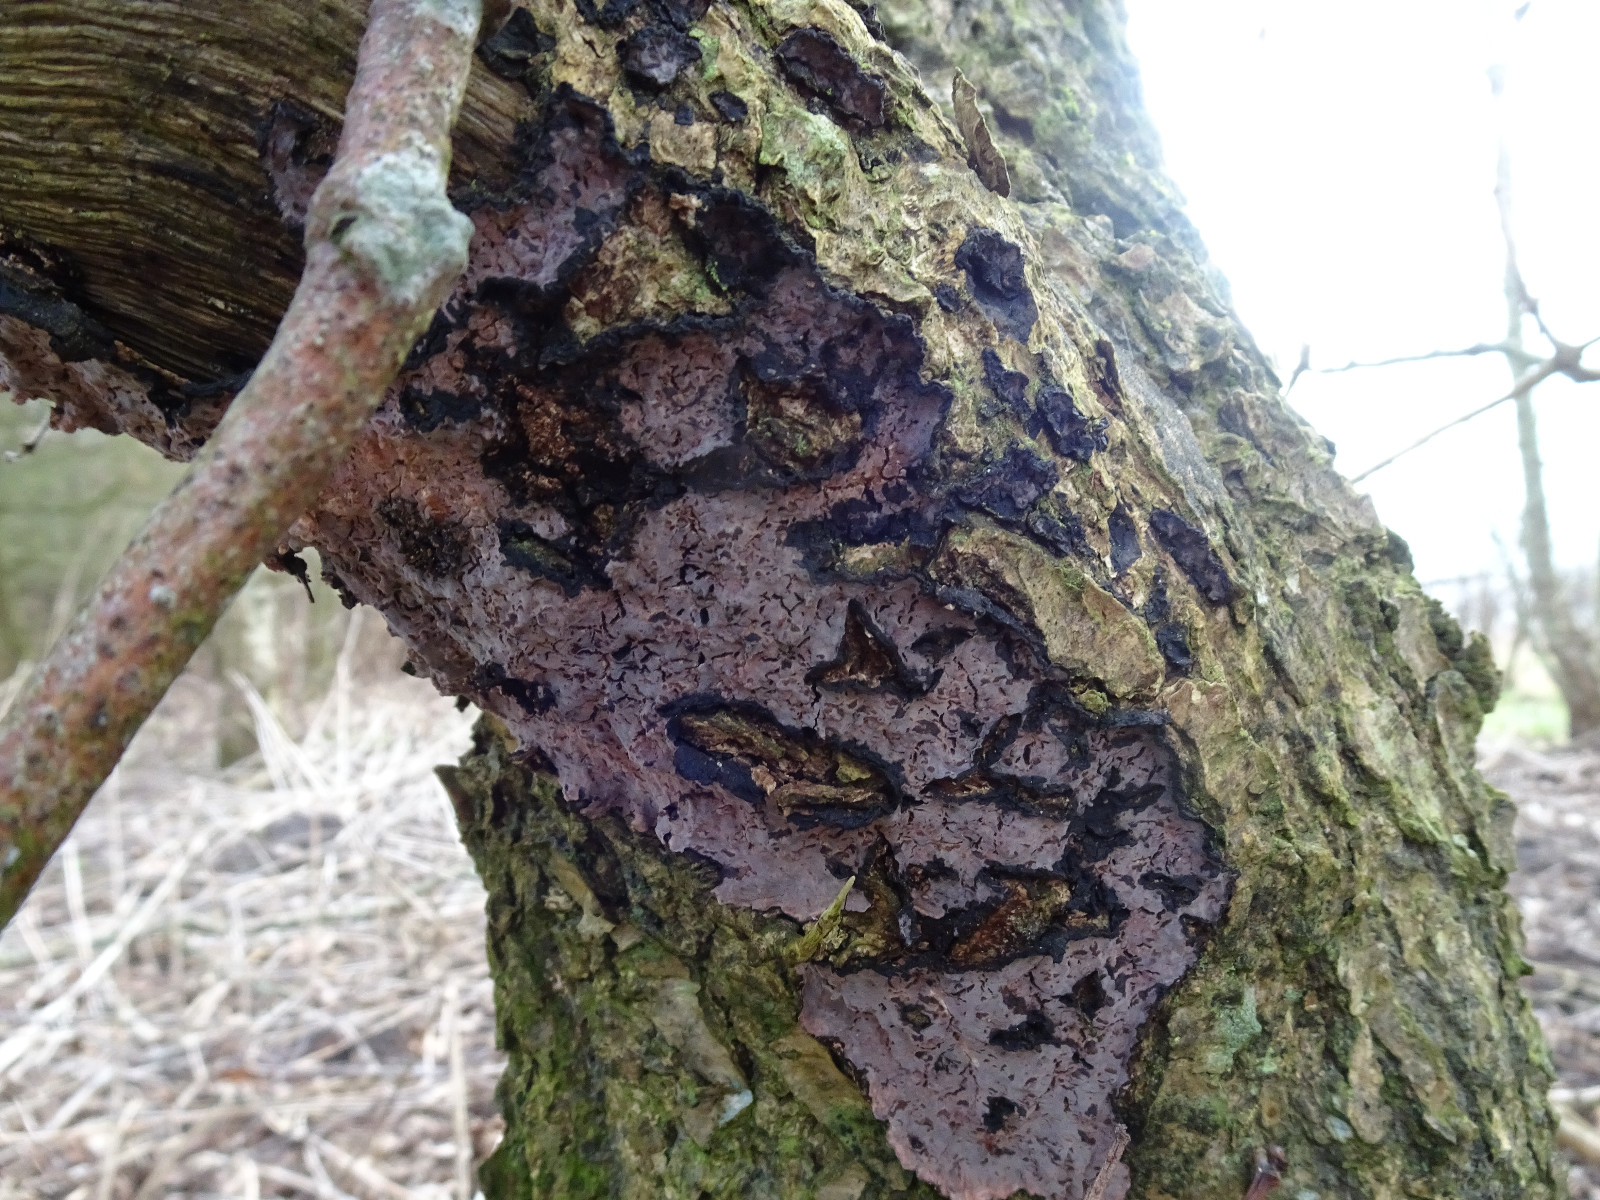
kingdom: Fungi
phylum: Basidiomycota
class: Agaricomycetes
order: Russulales
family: Peniophoraceae
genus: Peniophora
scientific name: Peniophora quercina
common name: ege-voksskind
